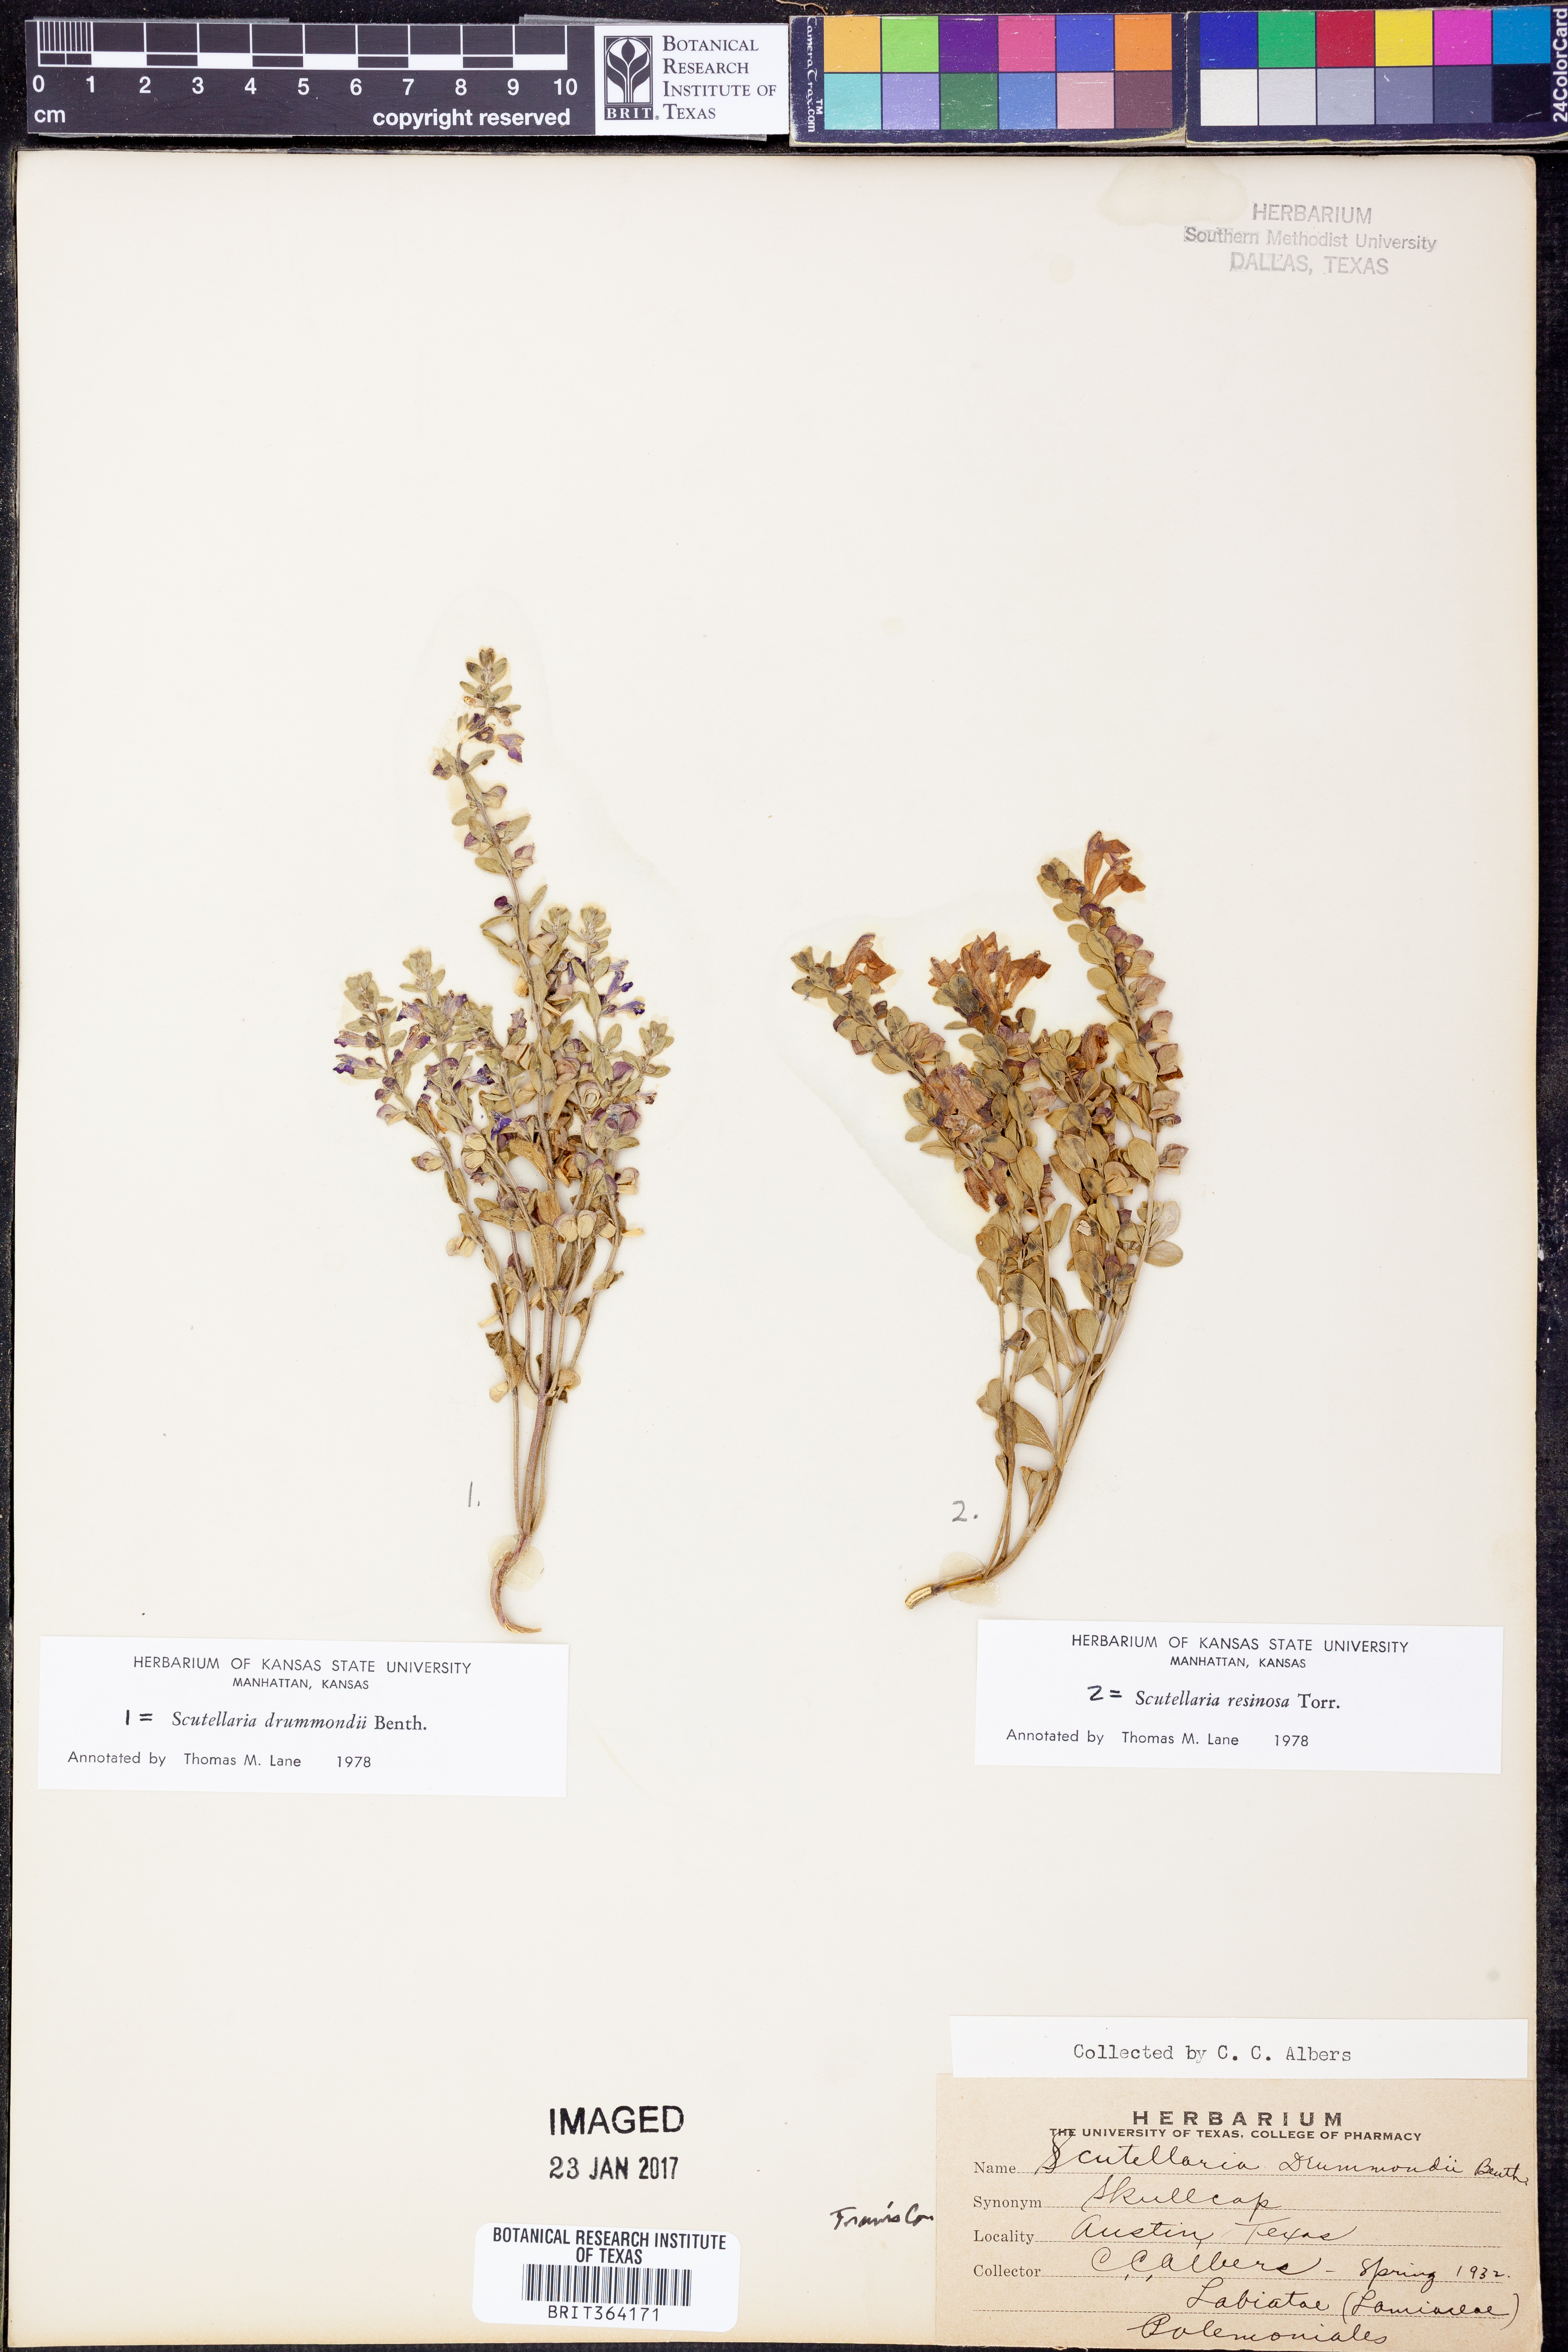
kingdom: Plantae
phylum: Tracheophyta
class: Magnoliopsida
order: Lamiales
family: Lamiaceae
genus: Scutellaria
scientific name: Scutellaria drummondii
